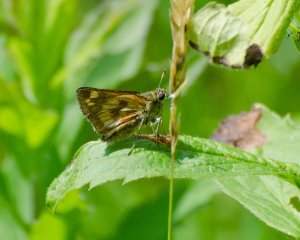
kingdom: Animalia
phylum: Arthropoda
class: Insecta
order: Lepidoptera
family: Hesperiidae
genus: Polites
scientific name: Polites
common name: Long Dash Skipper
